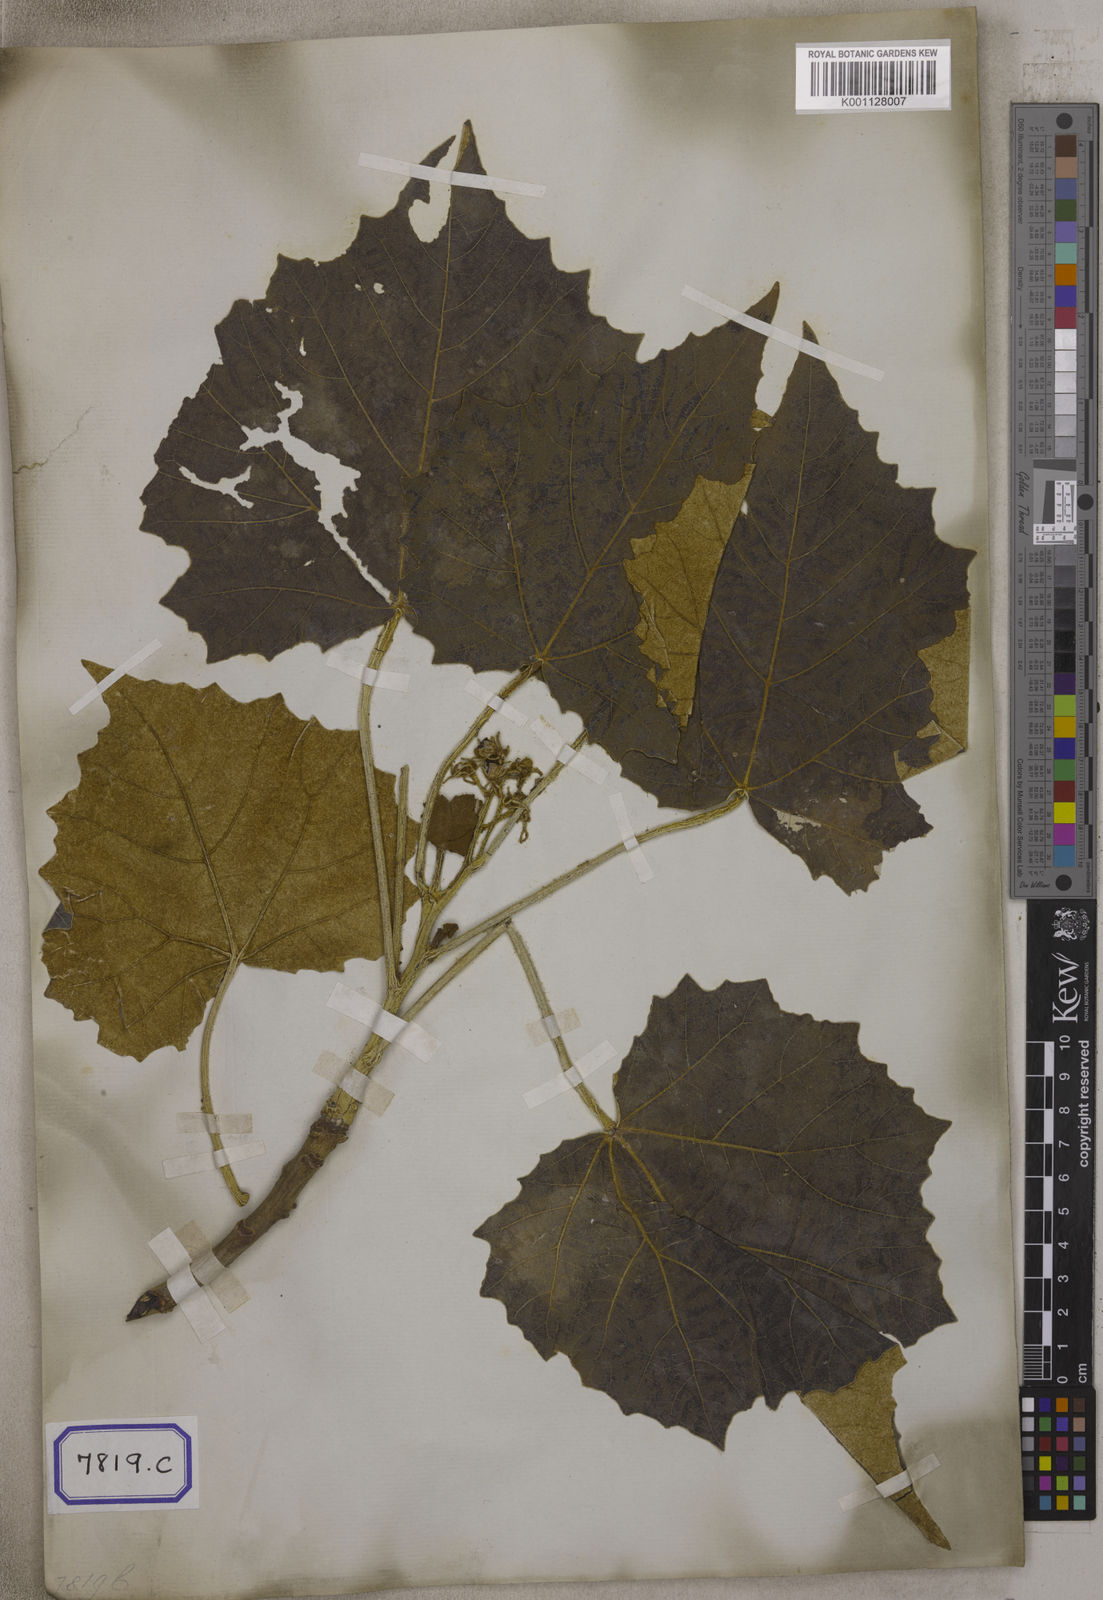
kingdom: Plantae
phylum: Tracheophyta
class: Magnoliopsida
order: Malpighiales
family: Euphorbiaceae
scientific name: Euphorbiaceae
